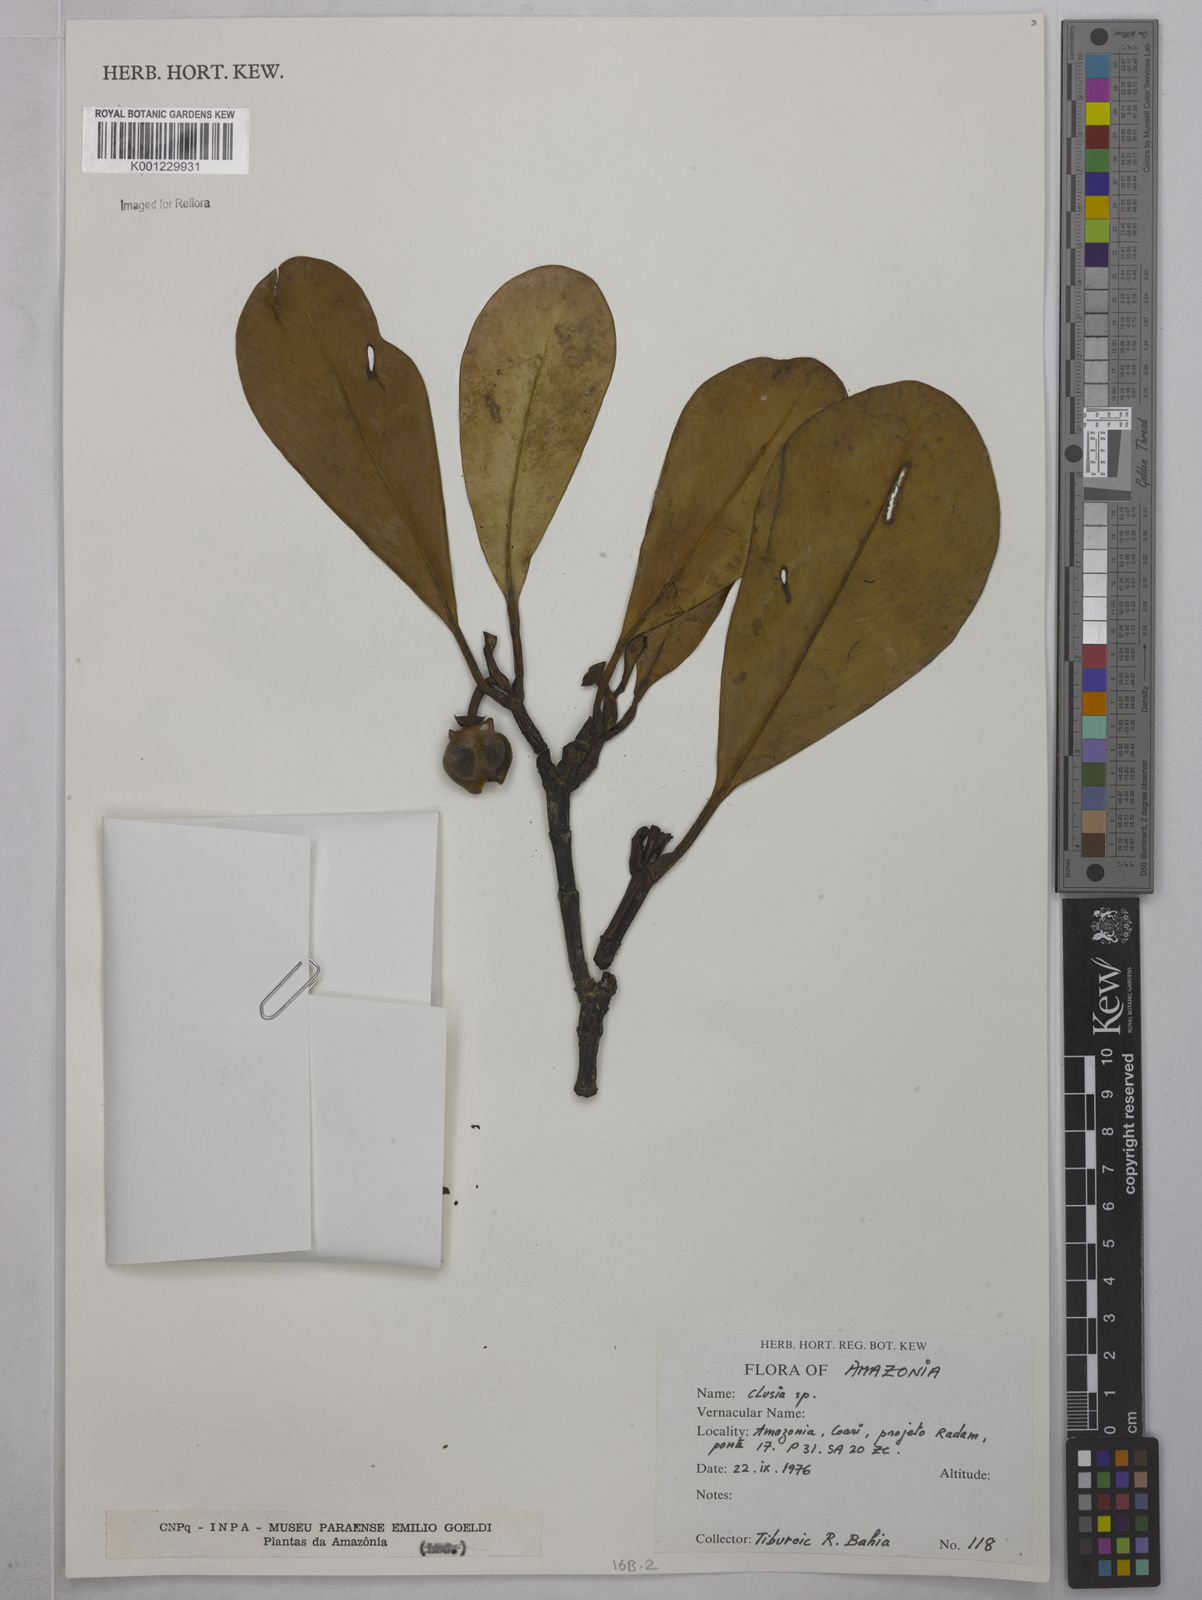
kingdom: Plantae
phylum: Tracheophyta
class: Magnoliopsida
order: Malpighiales
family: Clusiaceae
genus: Clusia
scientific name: Clusia
